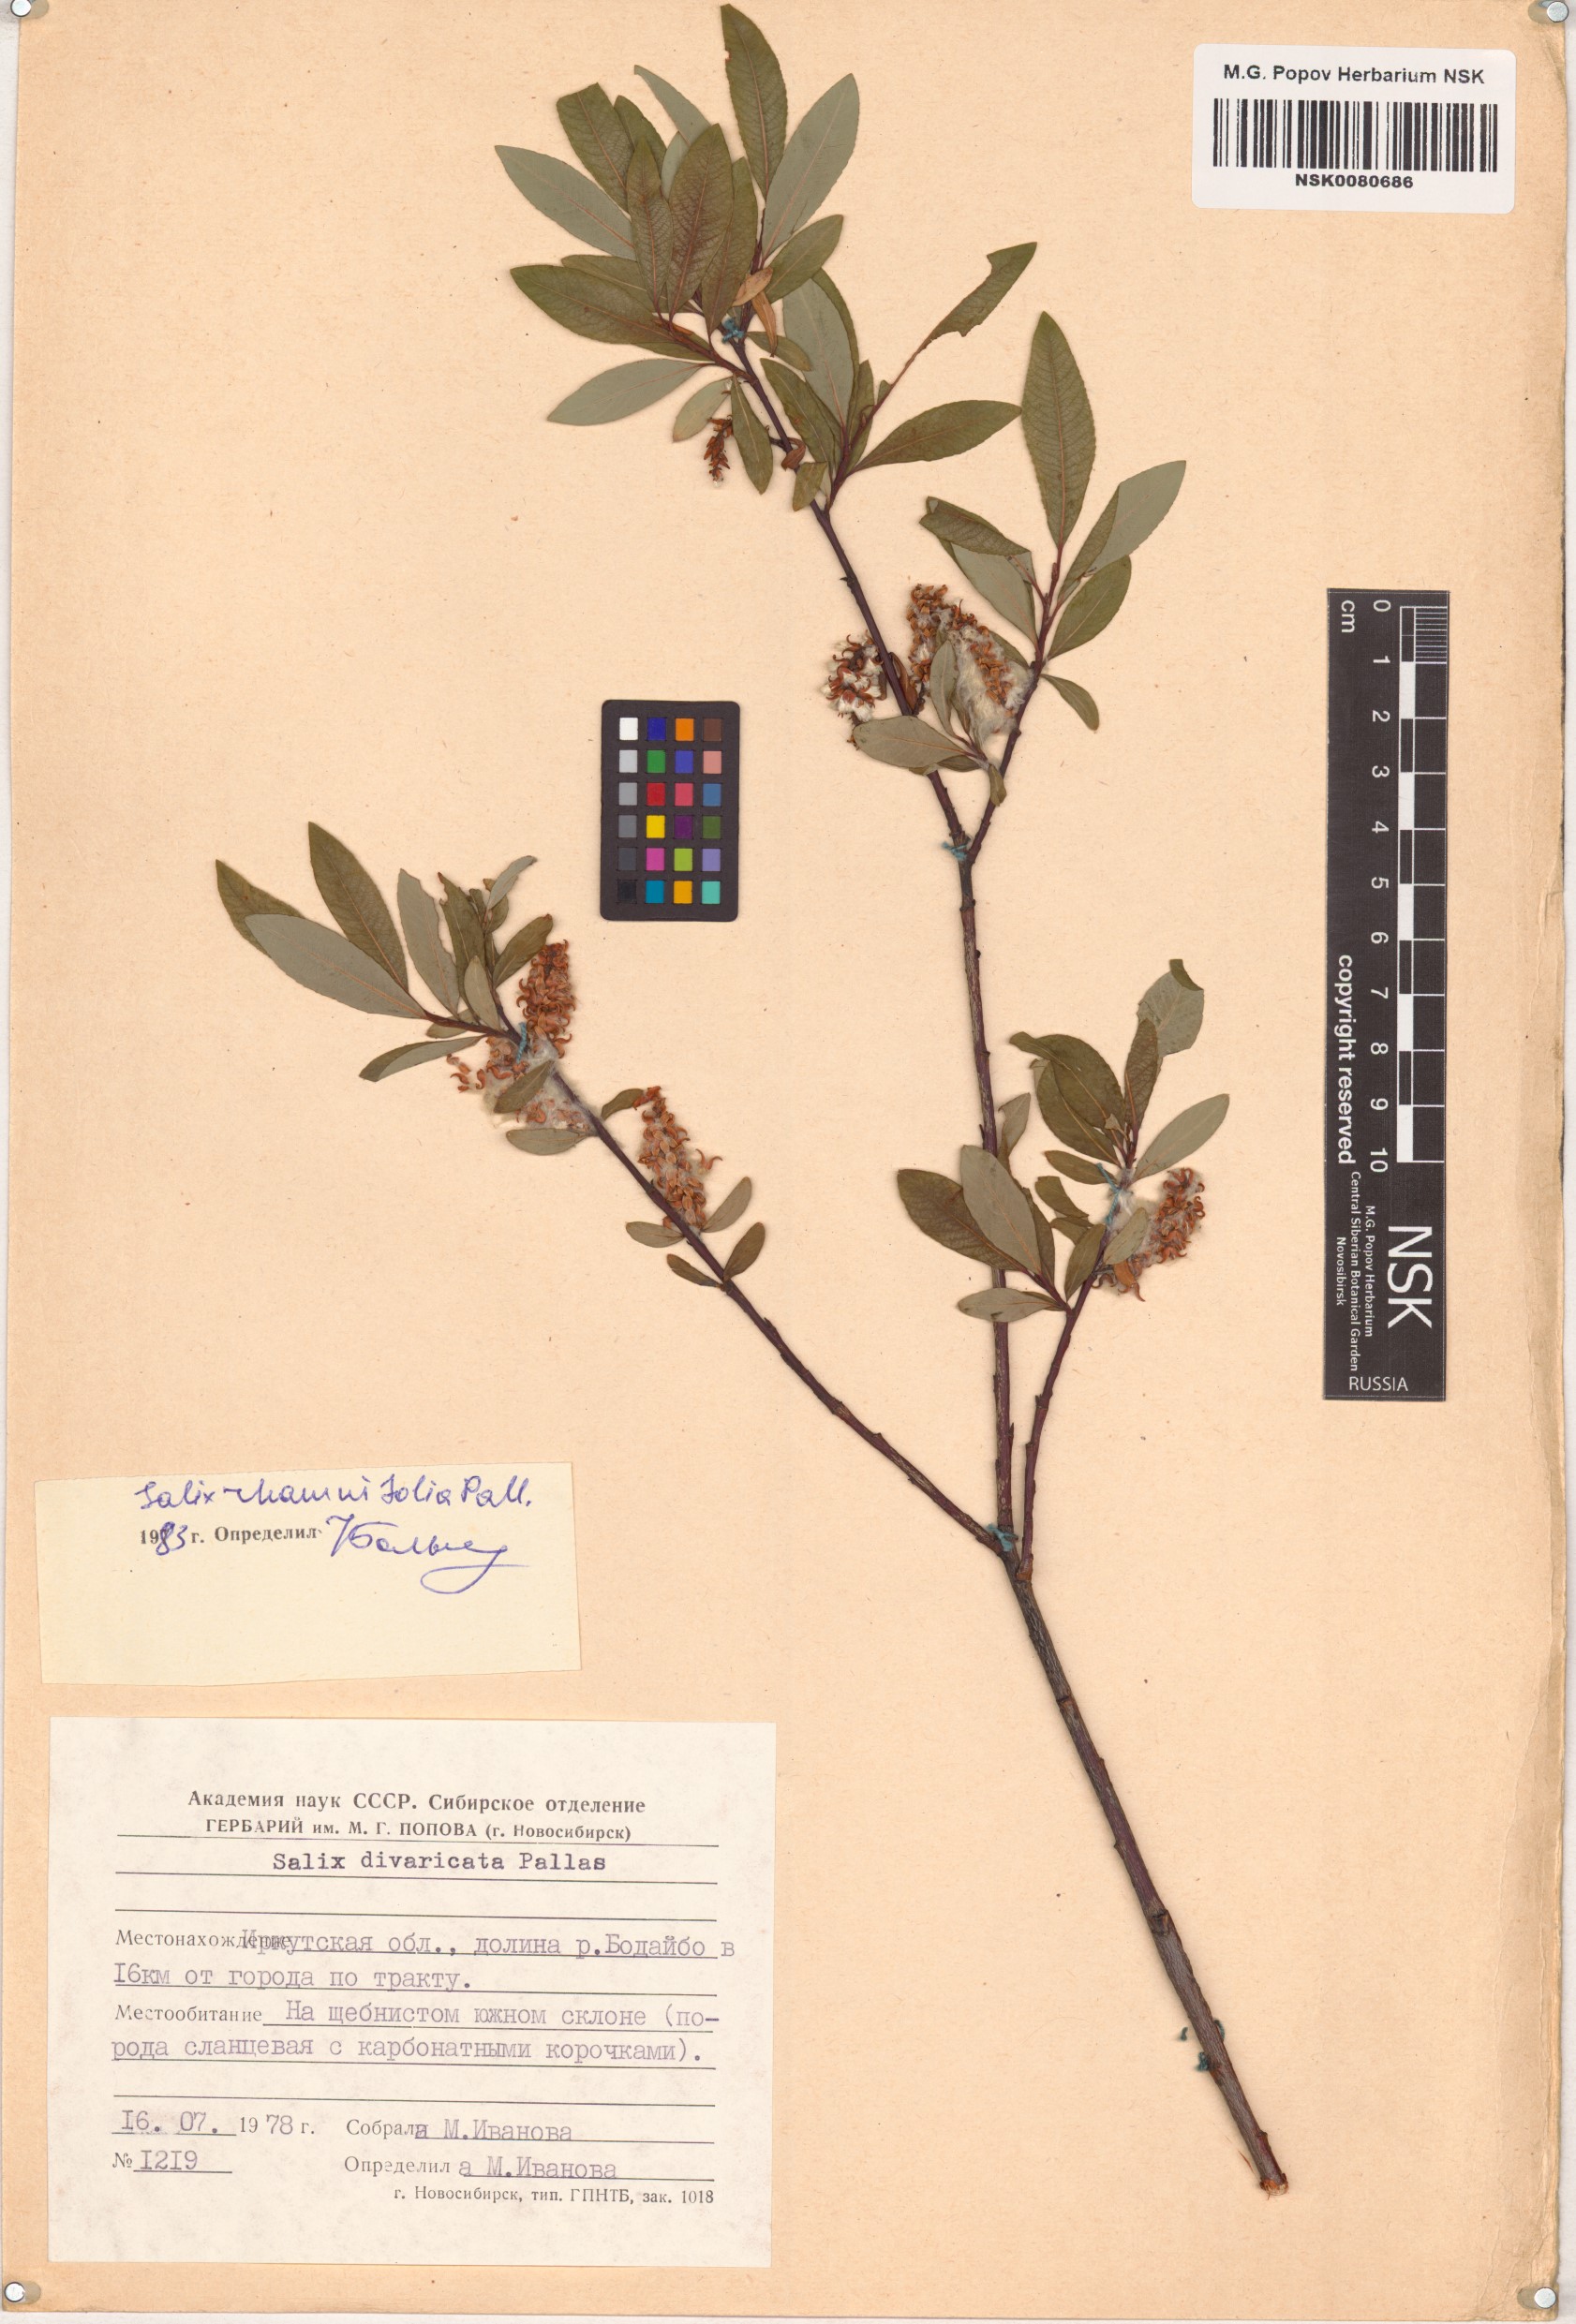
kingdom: Plantae
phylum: Tracheophyta
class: Magnoliopsida
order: Malpighiales
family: Salicaceae
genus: Salix
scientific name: Salix rhamnifolia
